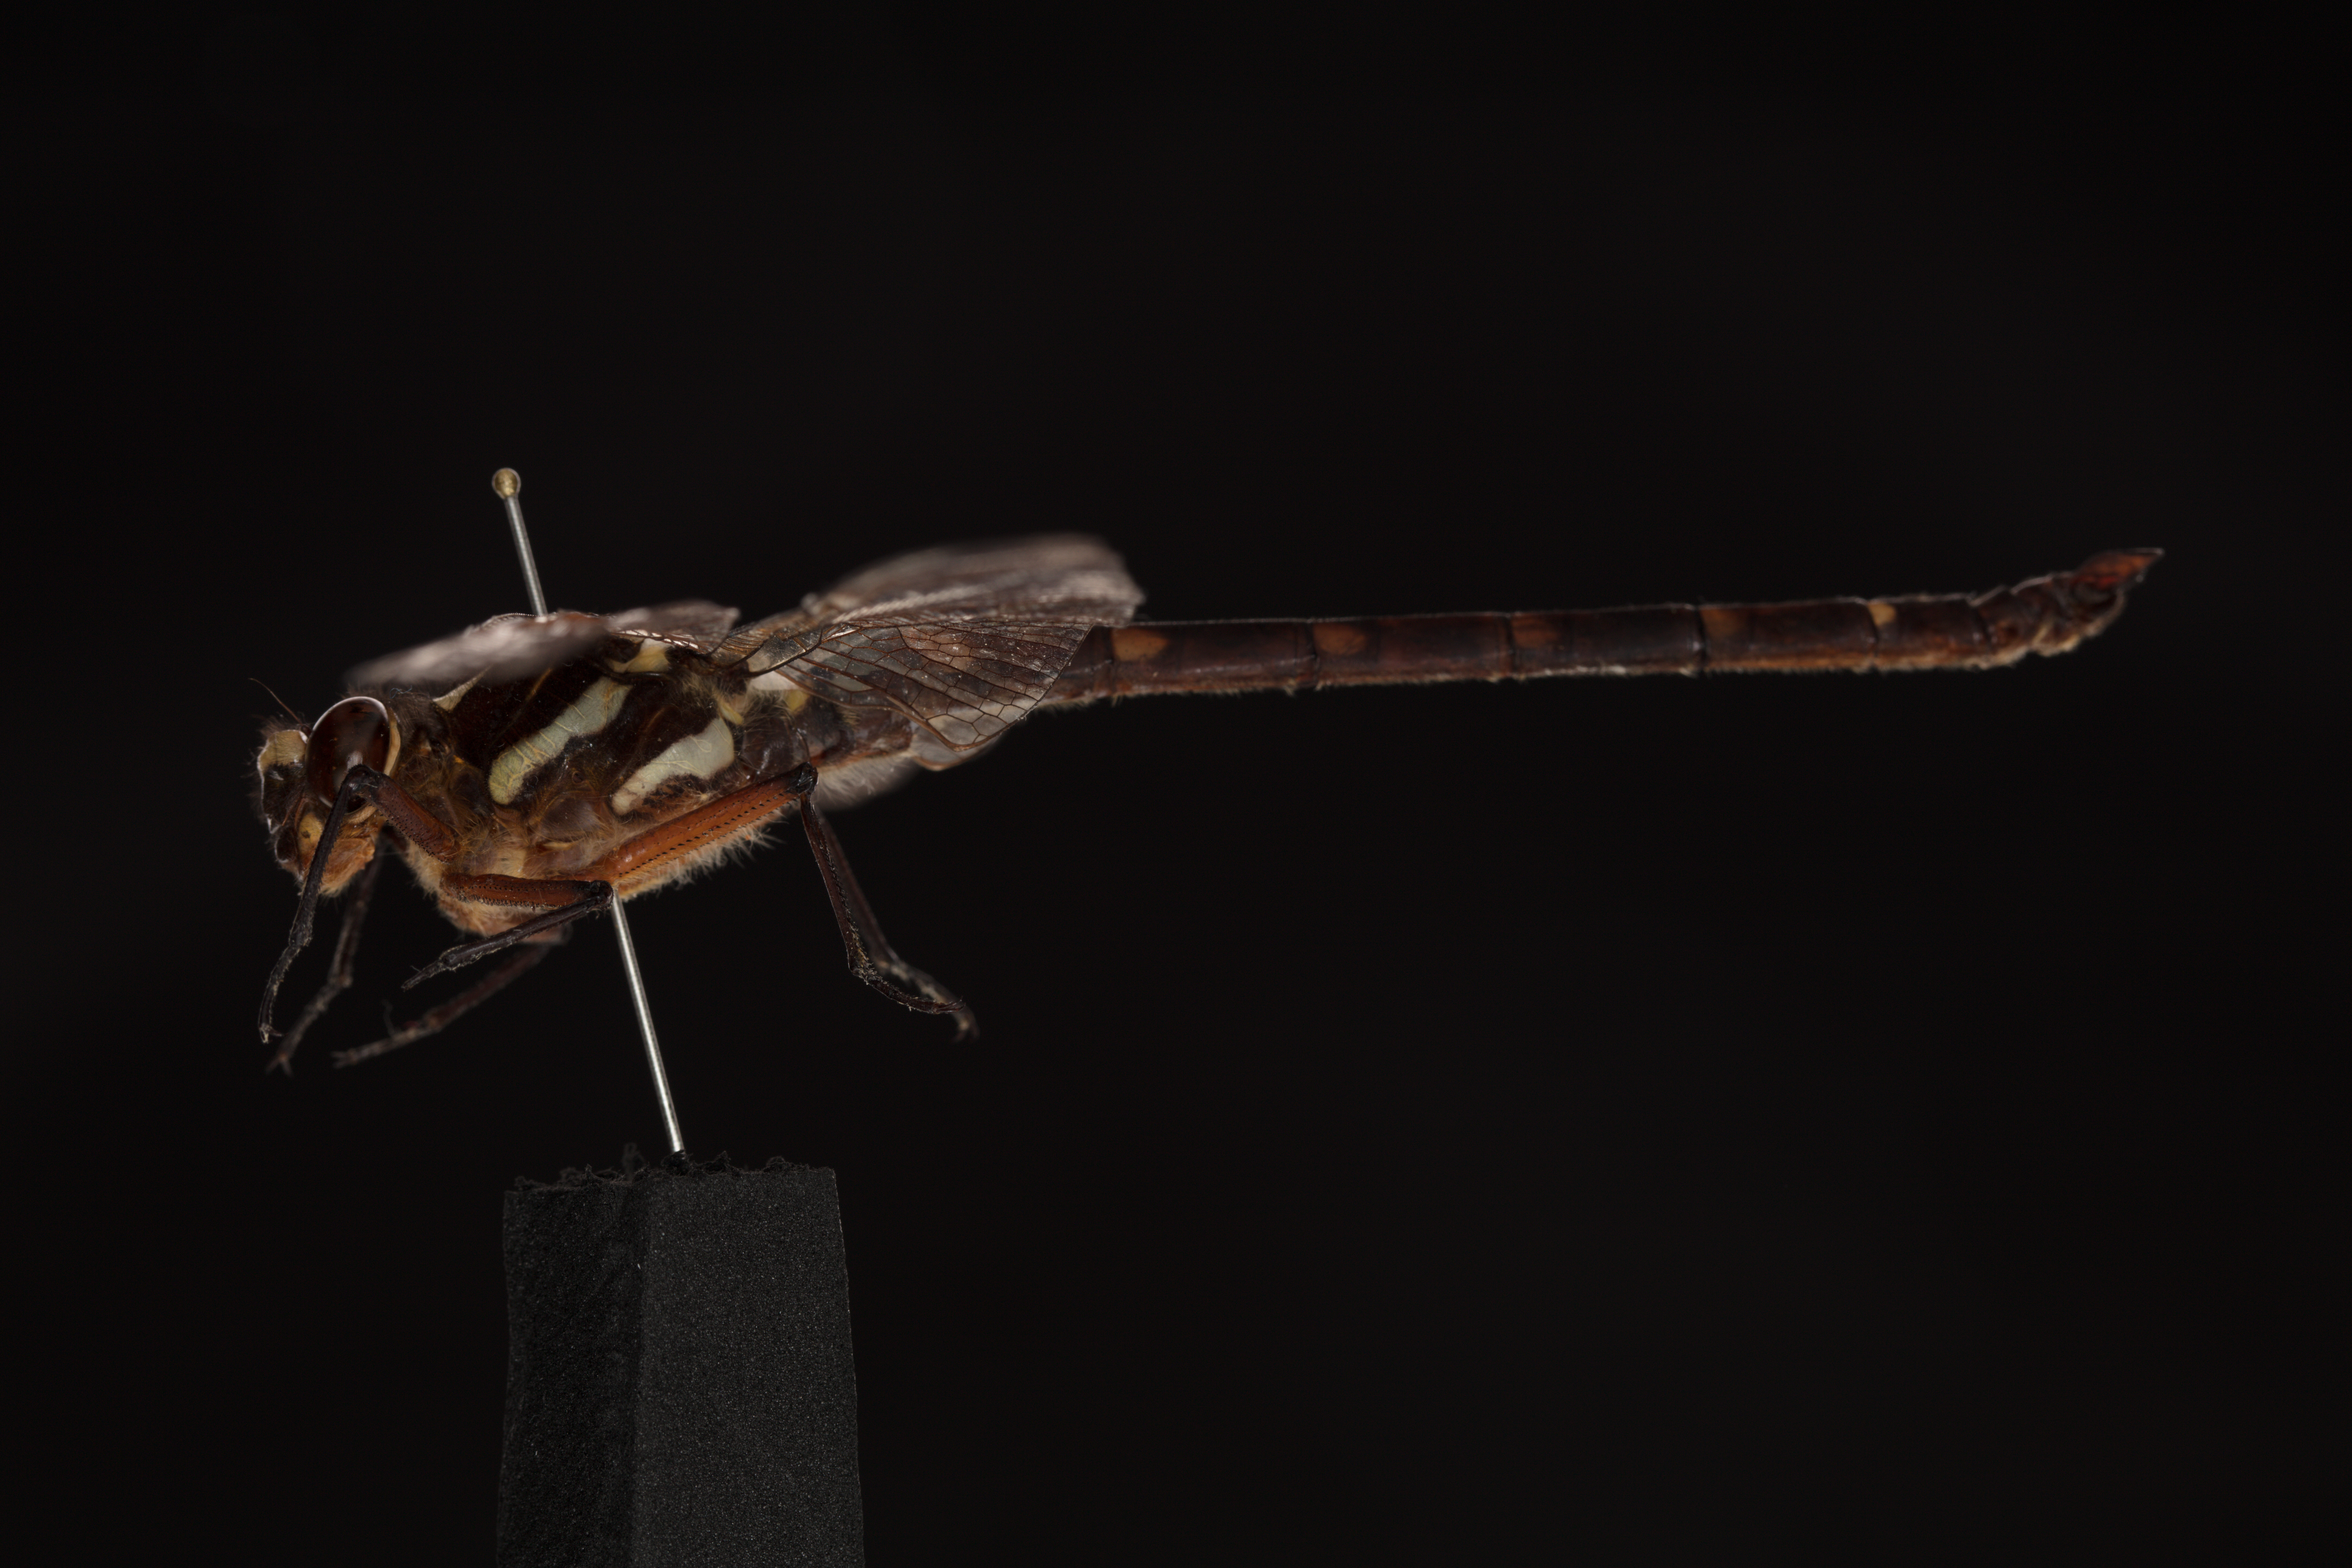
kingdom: Animalia
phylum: Arthropoda
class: Insecta
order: Odonata
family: Petaluridae
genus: Uropetala
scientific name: Uropetala carovei
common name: Bush giant dragonfly
